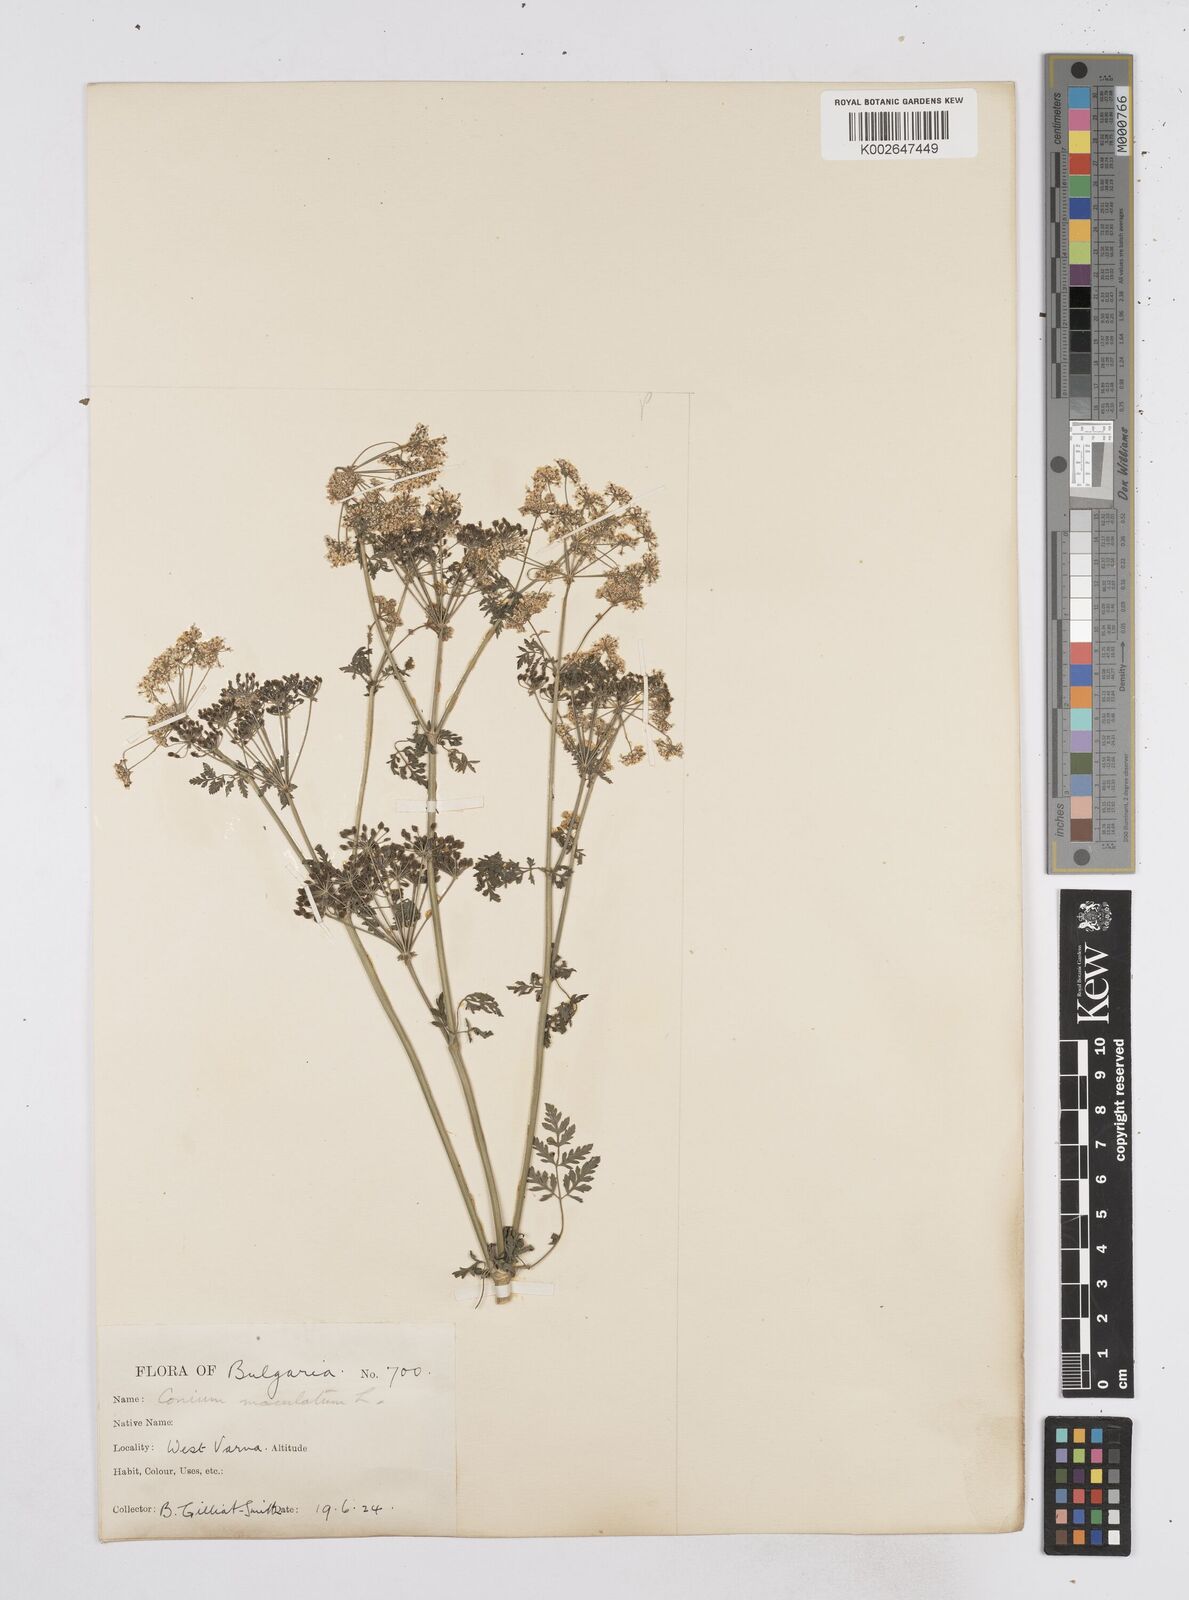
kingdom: Plantae
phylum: Tracheophyta
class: Magnoliopsida
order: Apiales
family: Apiaceae
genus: Conium
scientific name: Conium maculatum
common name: Hemlock
